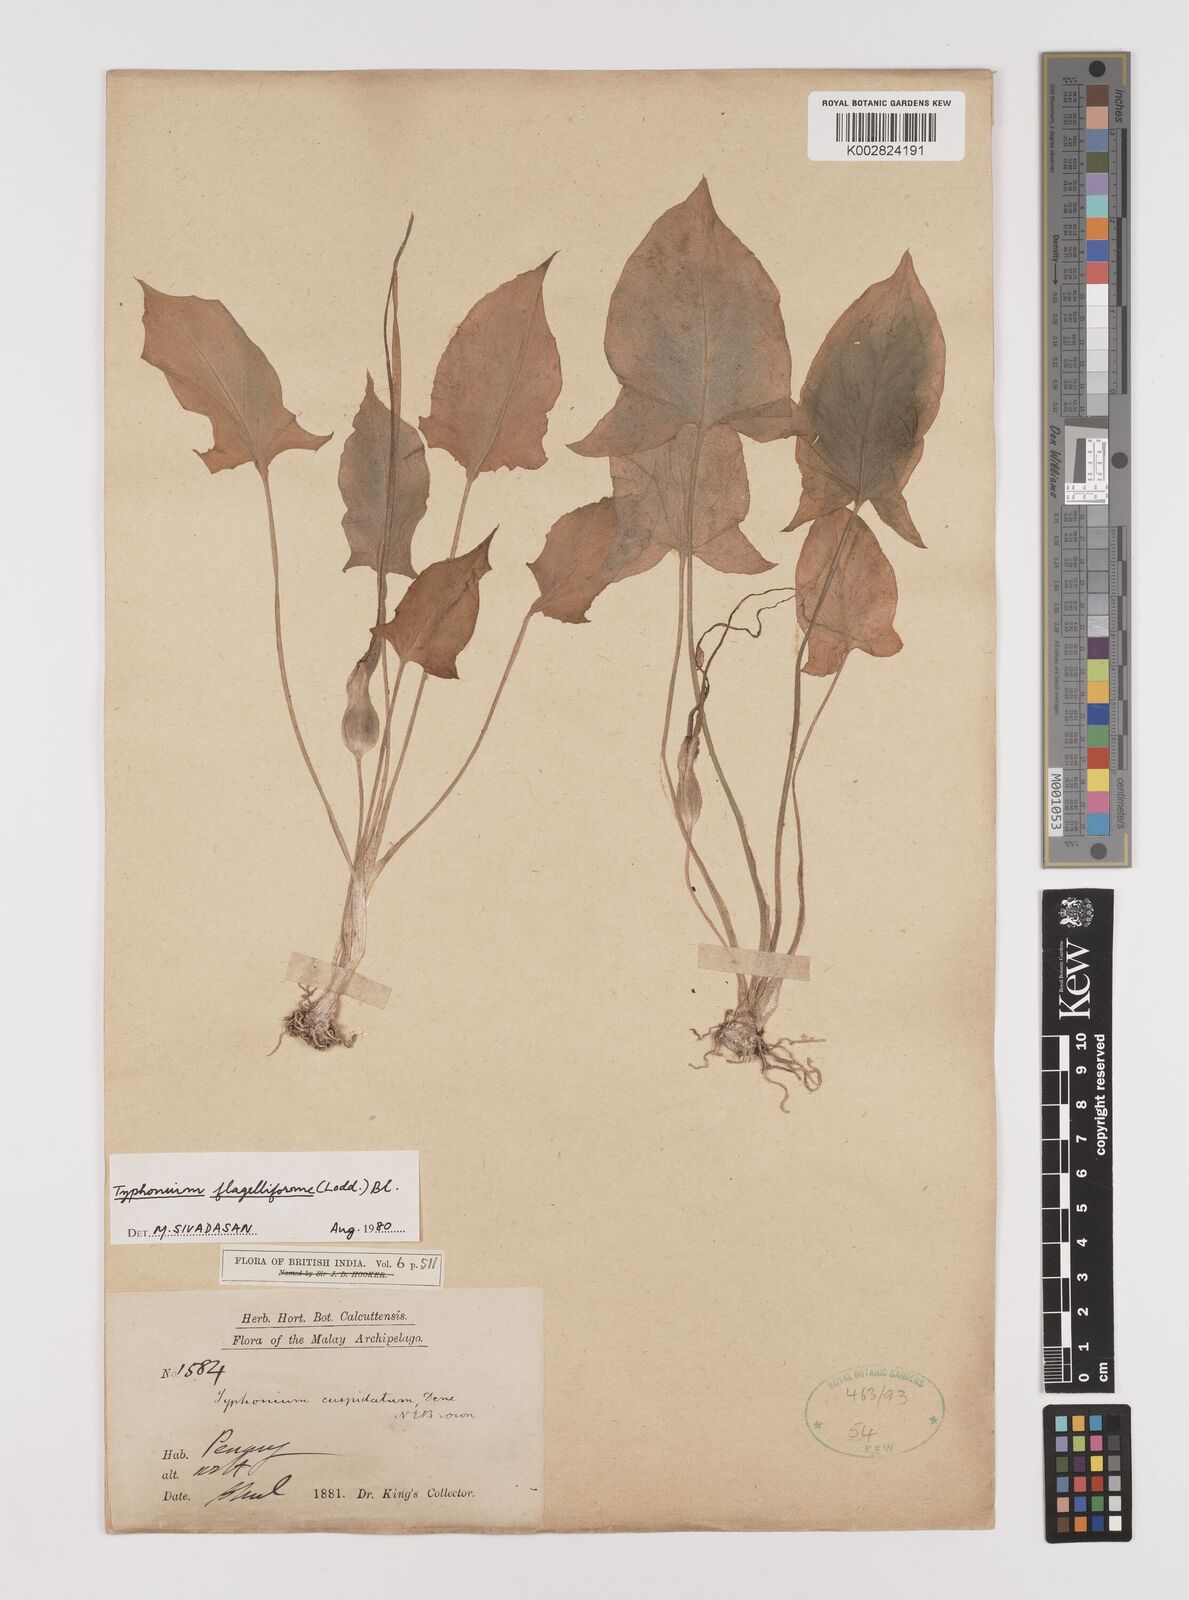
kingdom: Plantae
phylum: Tracheophyta
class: Liliopsida
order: Alismatales
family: Araceae
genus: Typhonium
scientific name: Typhonium flagelliforme
